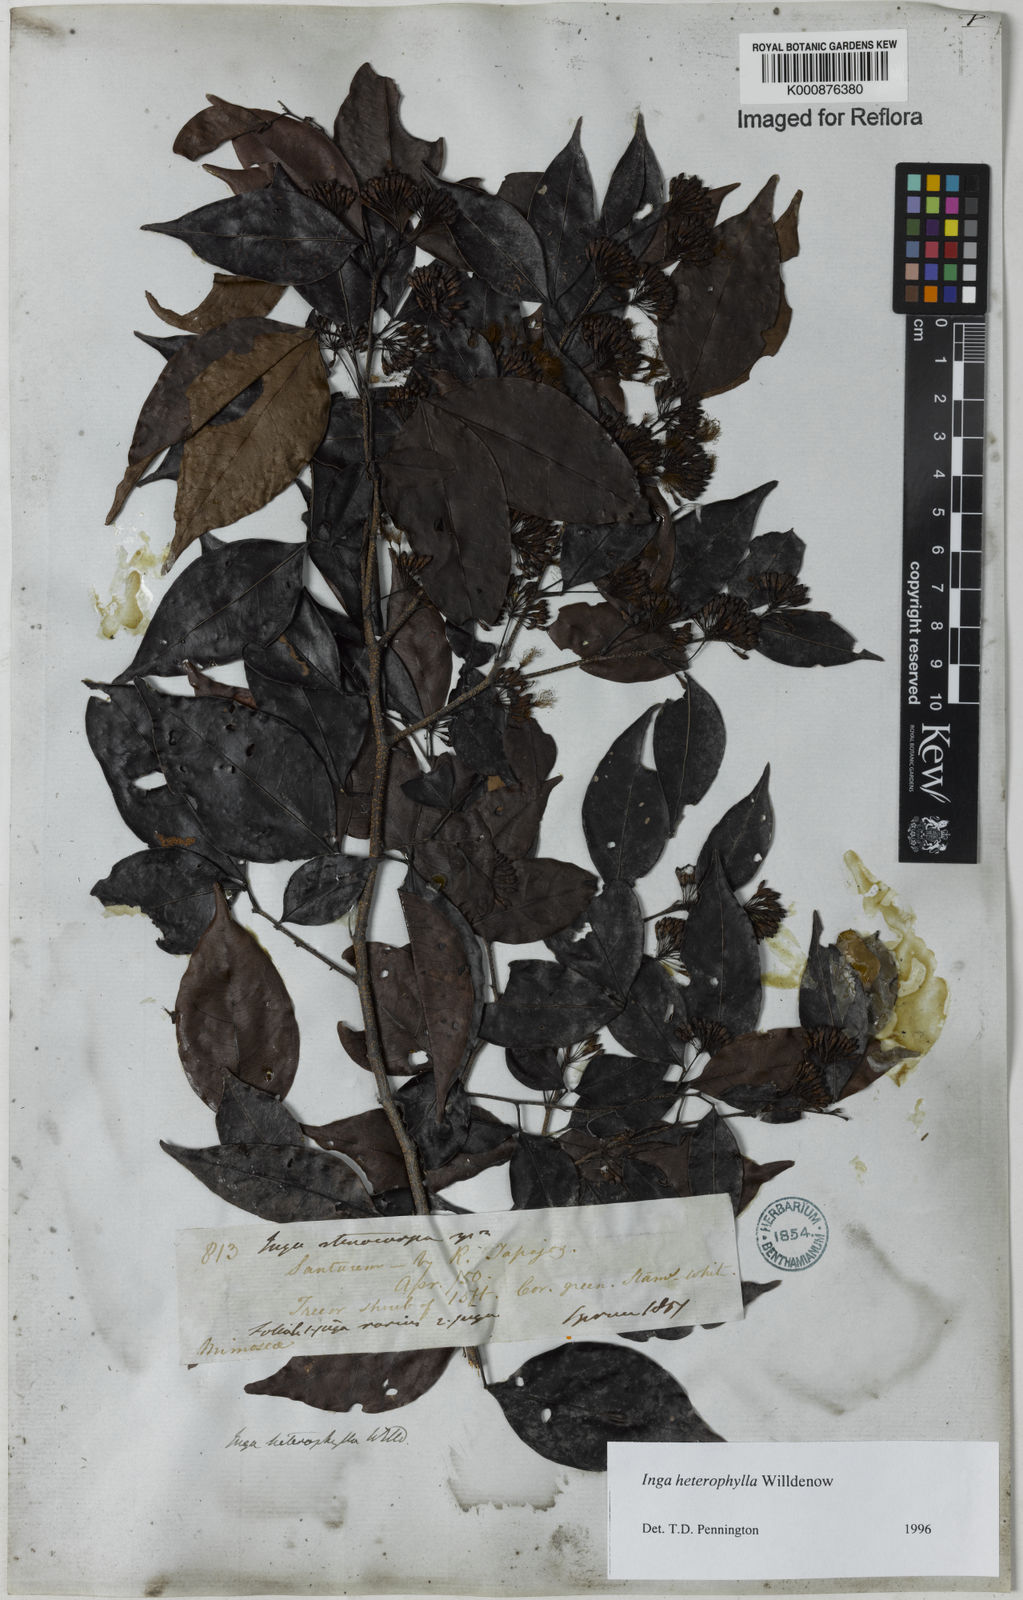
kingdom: Plantae
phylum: Tracheophyta
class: Magnoliopsida
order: Fabales
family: Fabaceae
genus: Inga
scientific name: Inga heterophylla
